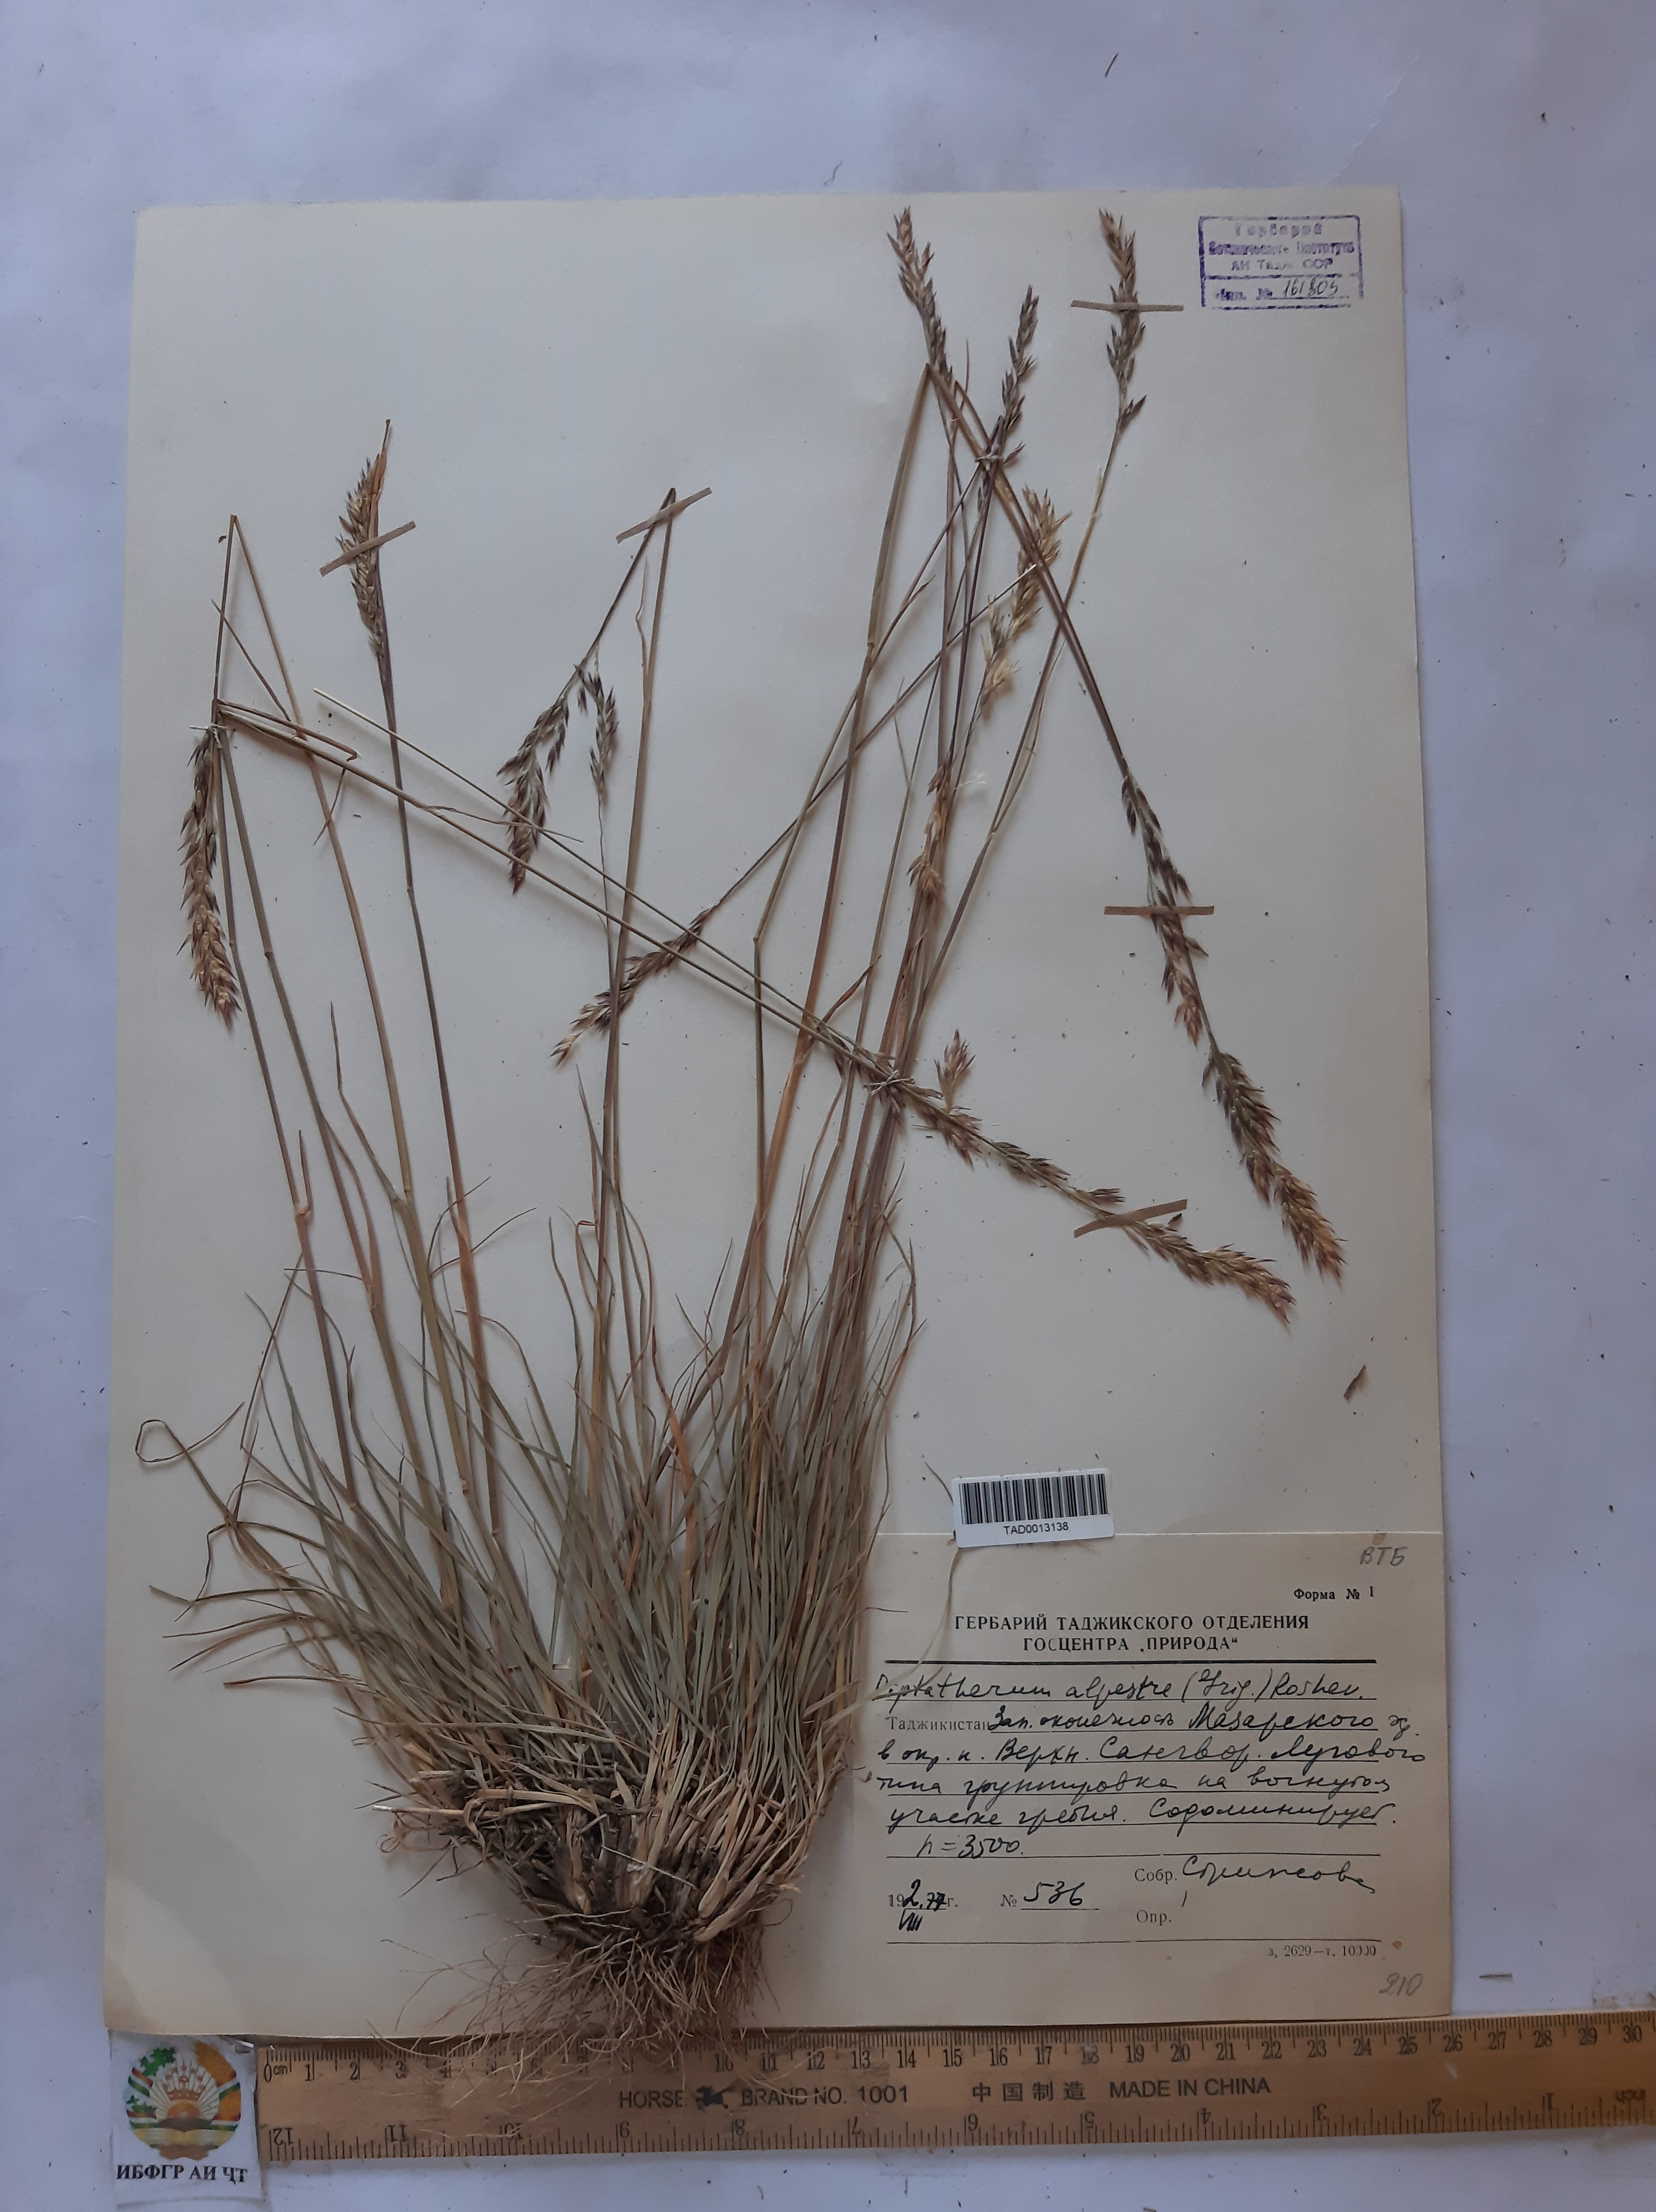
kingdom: Plantae
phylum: Tracheophyta
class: Liliopsida
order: Poales
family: Poaceae
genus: Piptatherum
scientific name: Piptatherum alpestre
